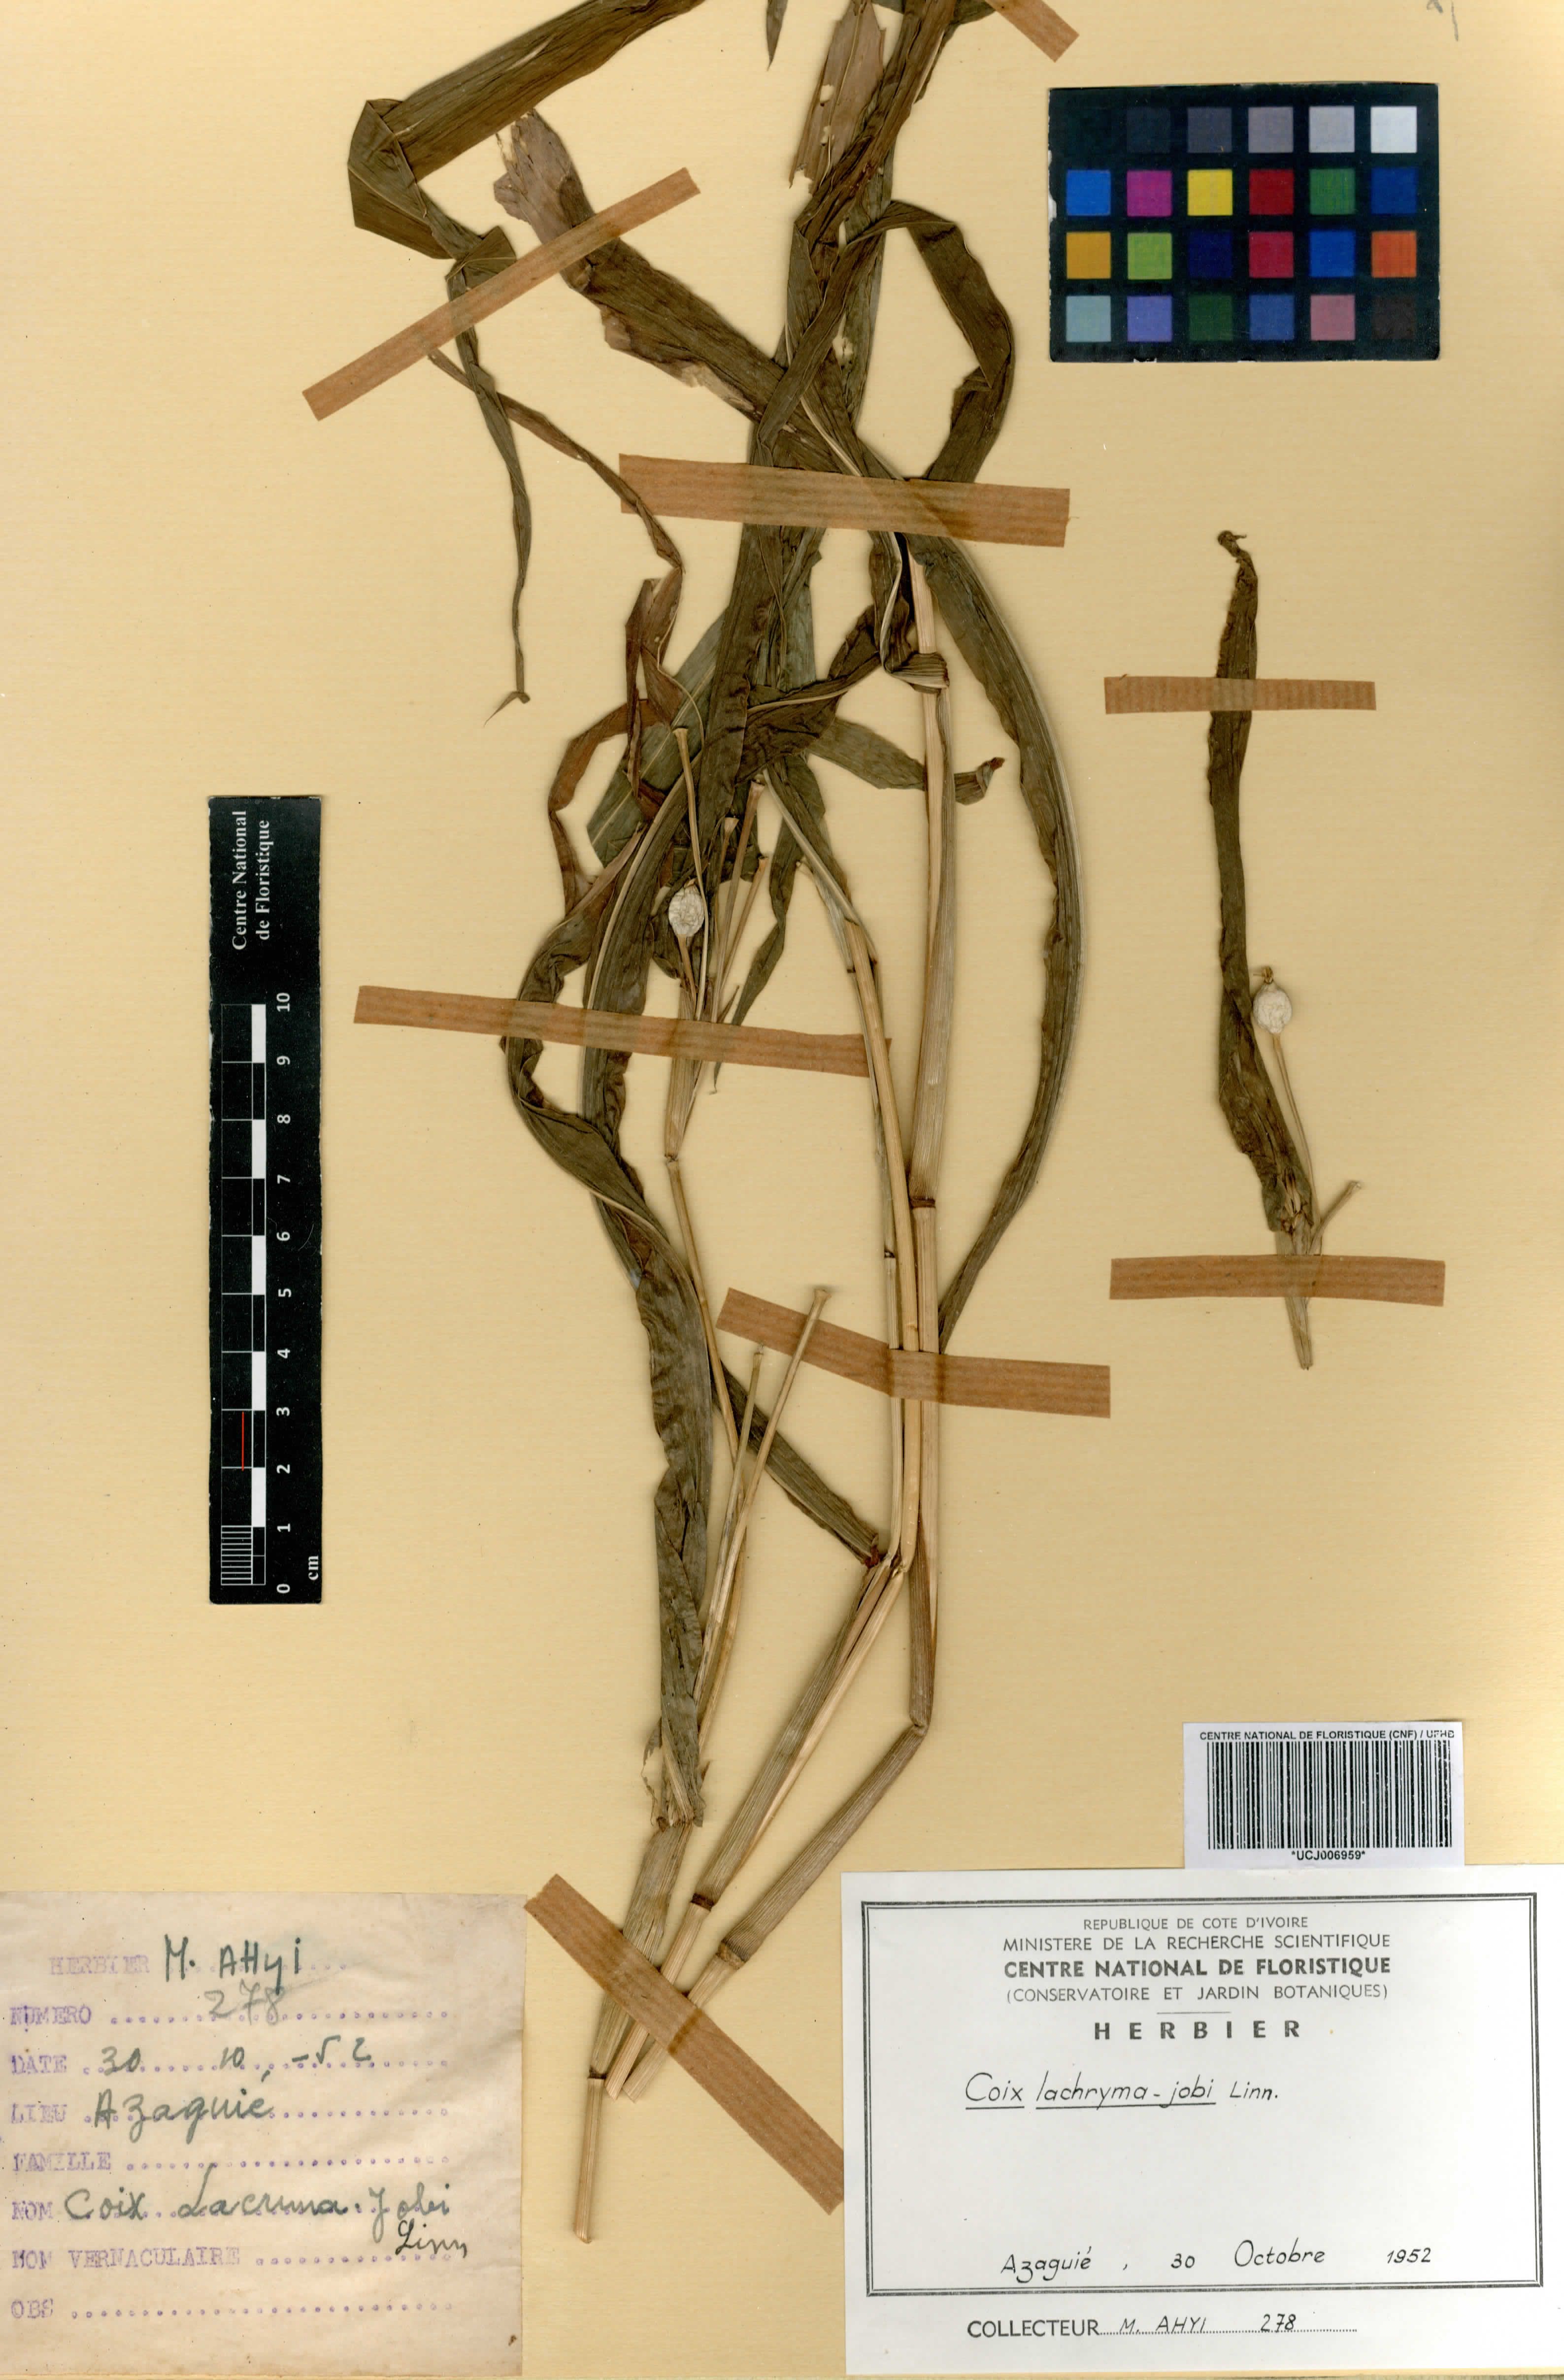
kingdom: Plantae
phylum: Tracheophyta
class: Liliopsida
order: Poales
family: Poaceae
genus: Coix
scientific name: Coix lacryma-jobi
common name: Job's tears
